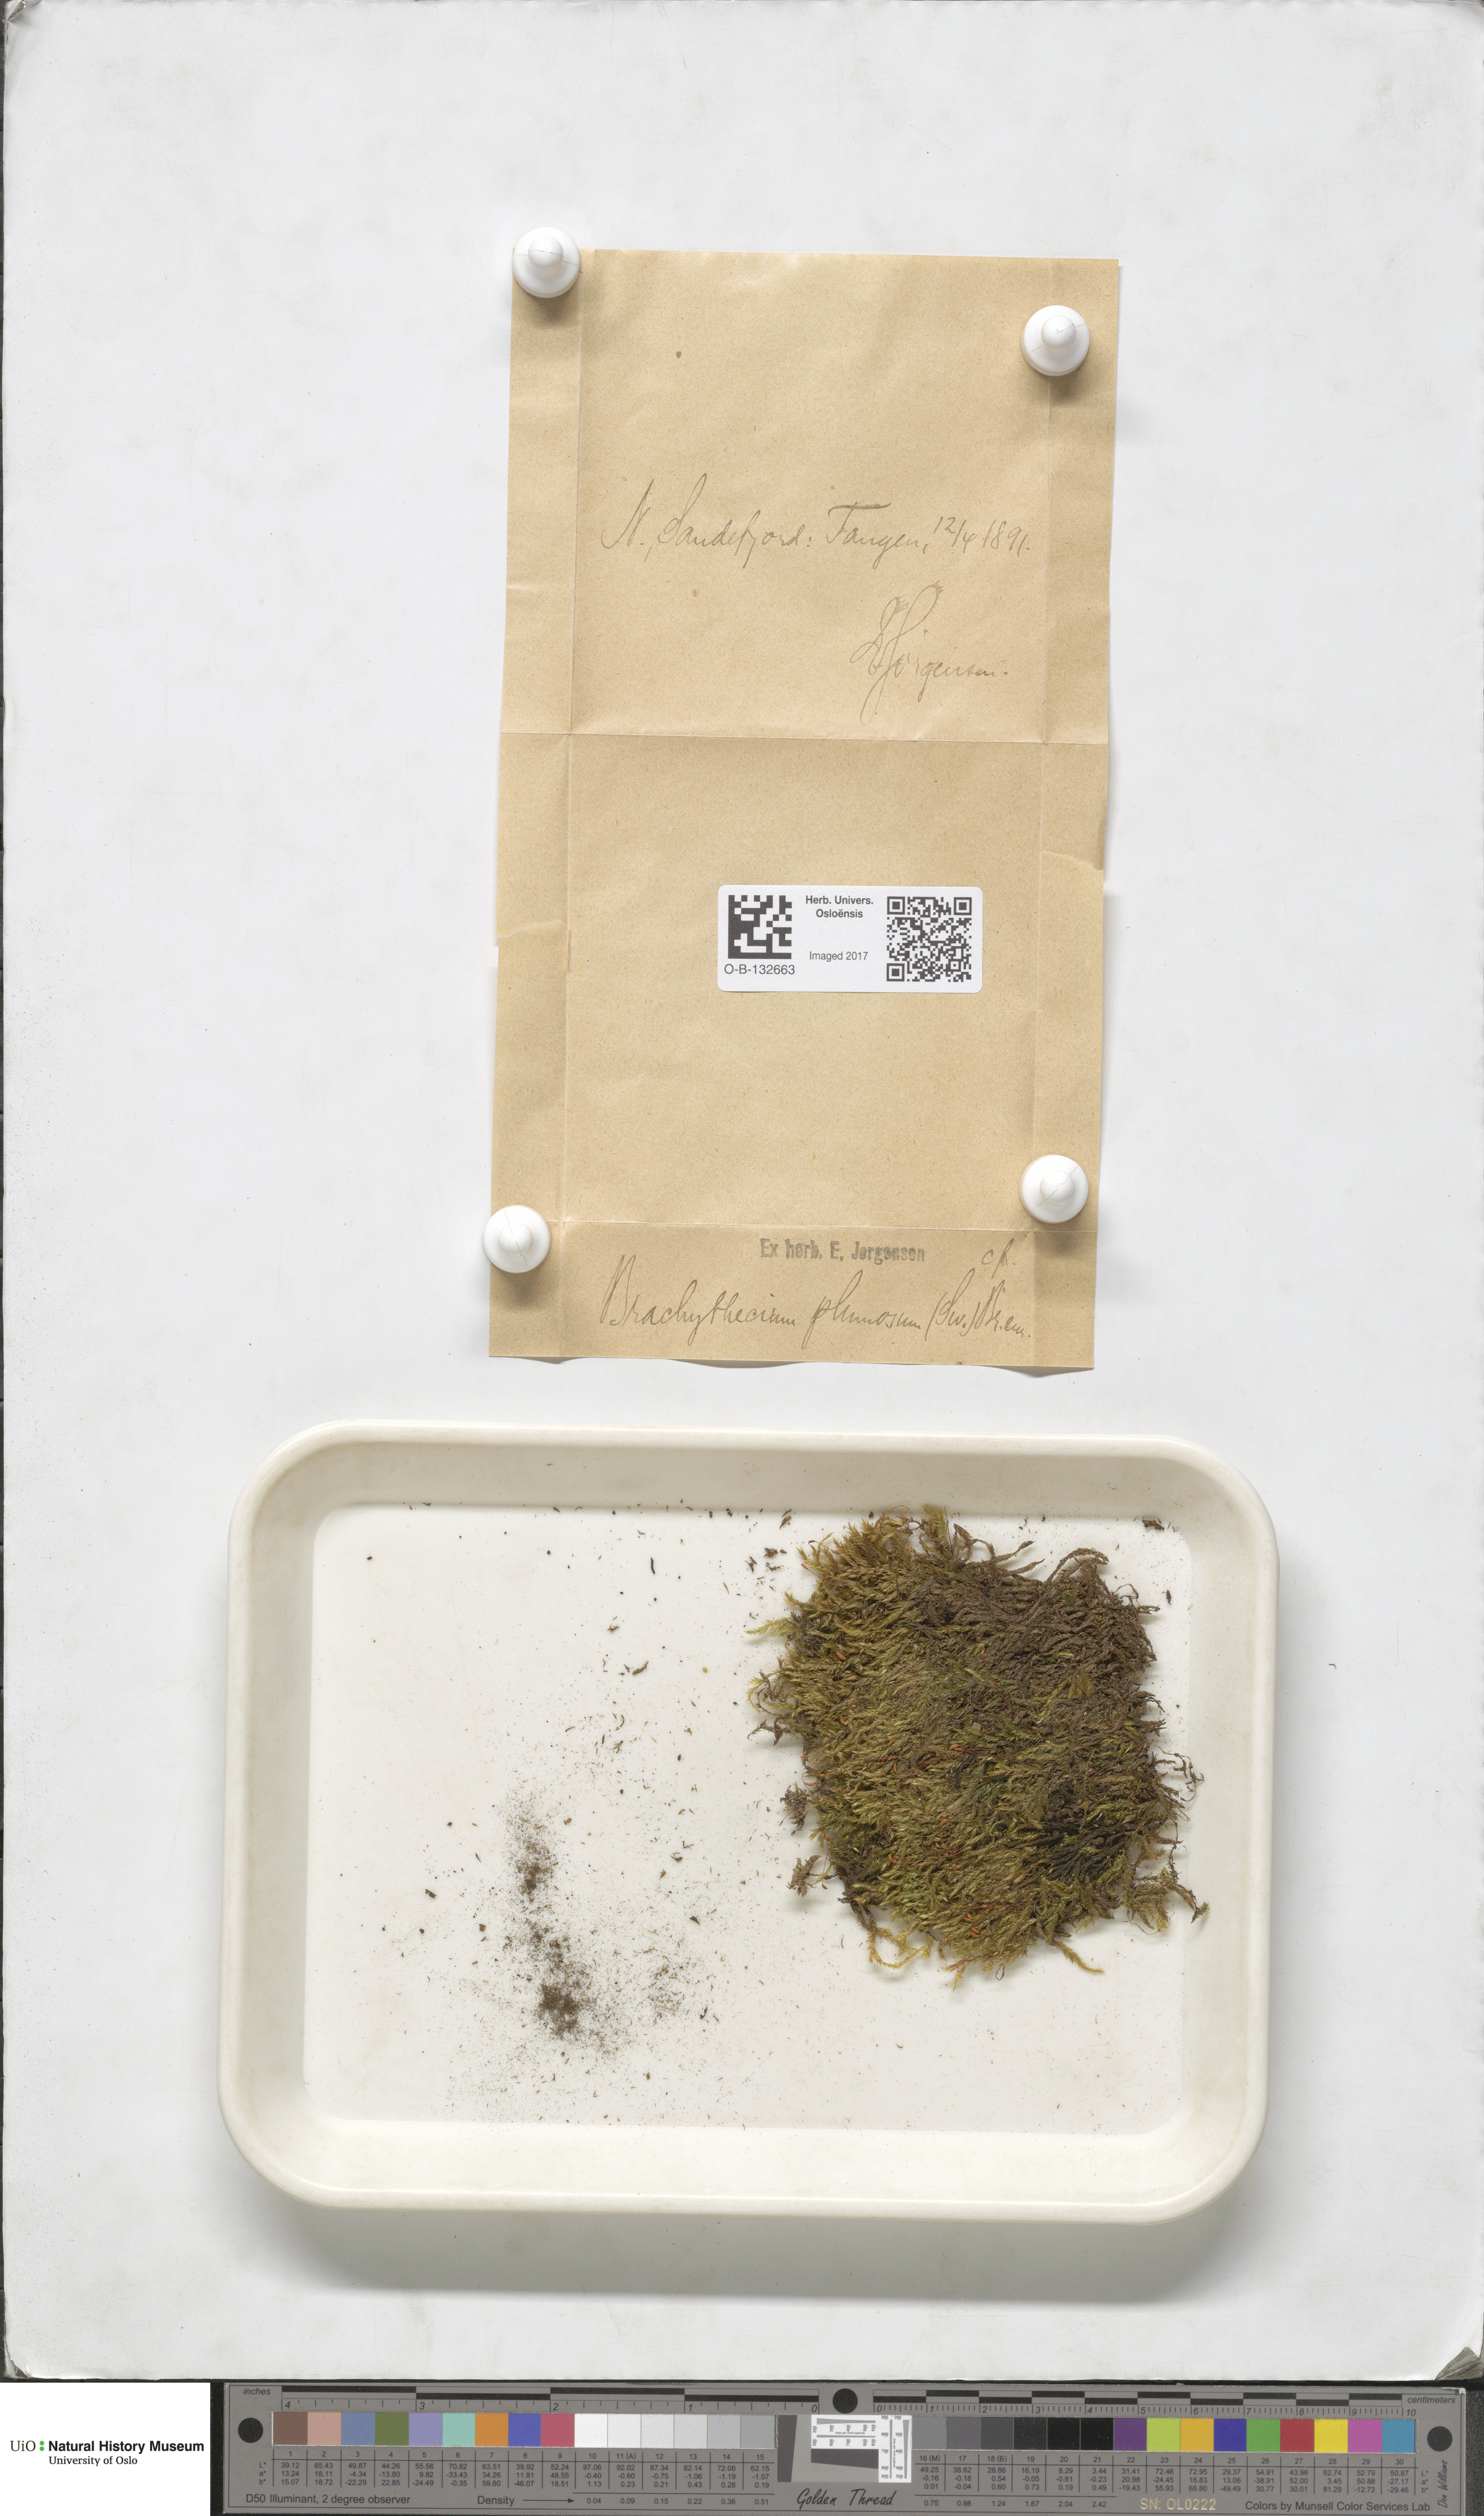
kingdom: Plantae
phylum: Bryophyta
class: Bryopsida
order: Hypnales
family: Brachytheciaceae
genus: Sciuro-hypnum
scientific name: Sciuro-hypnum plumosum
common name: Rusty feather-moss
